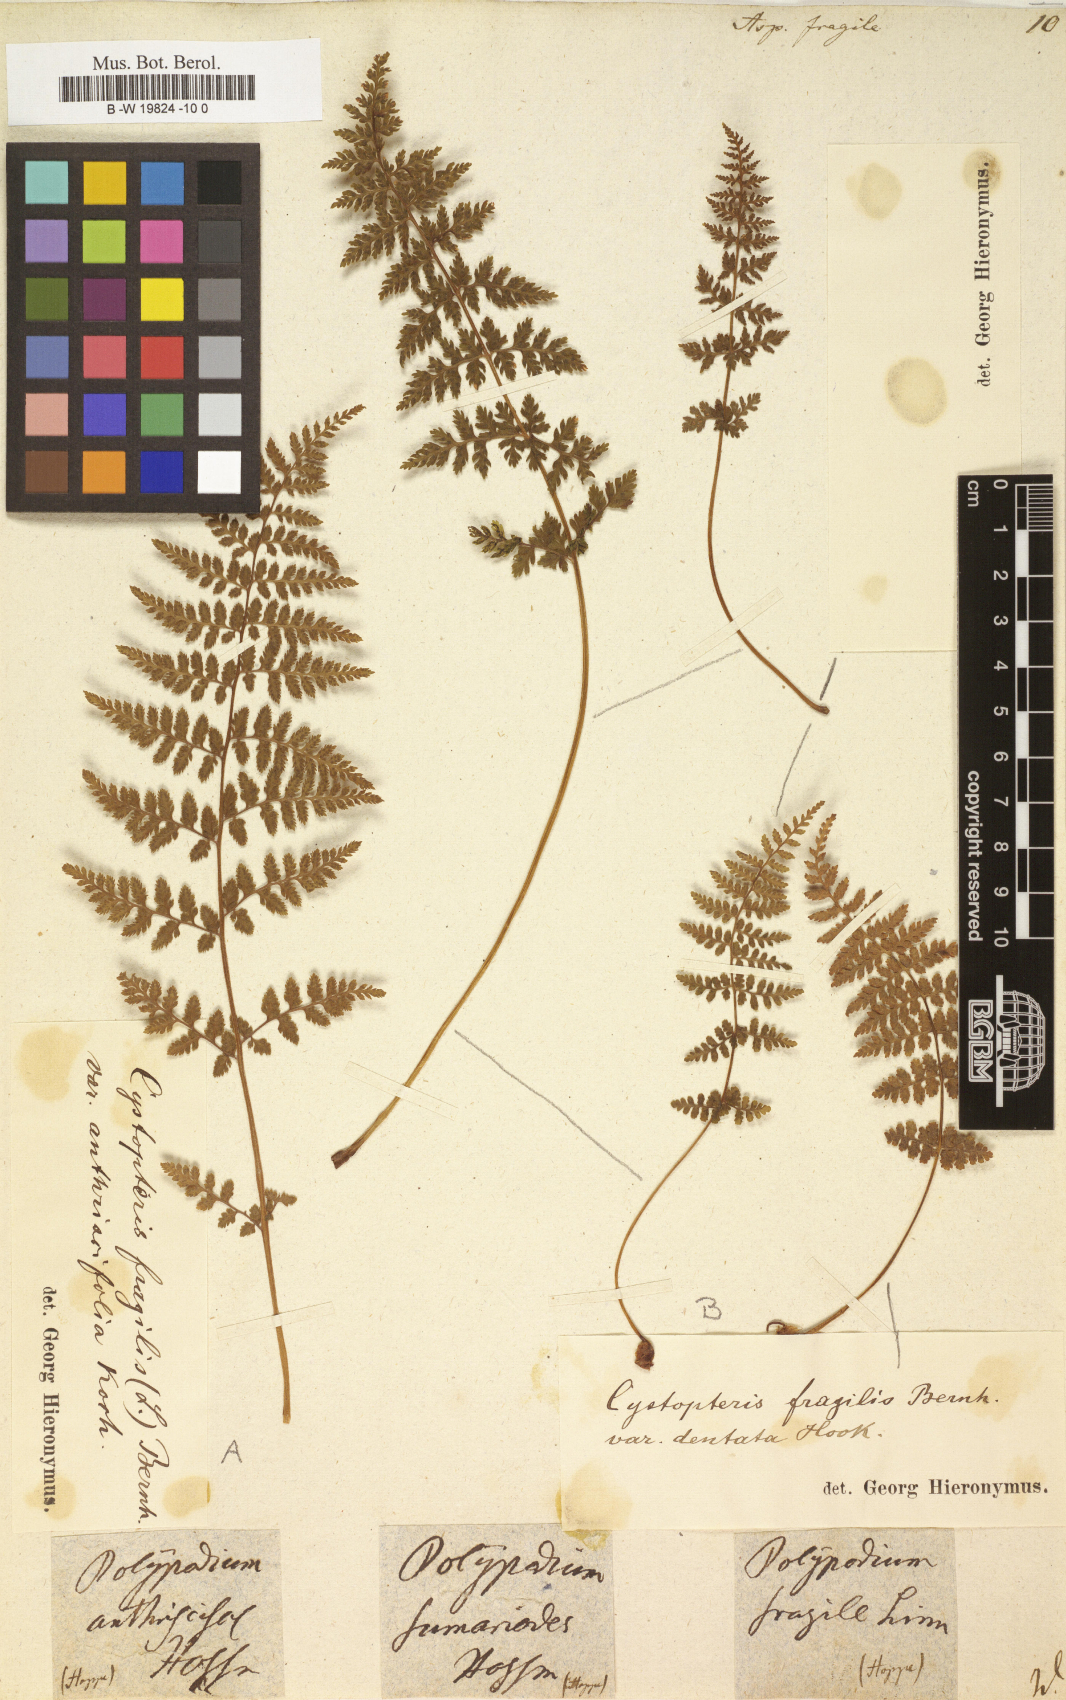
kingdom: Plantae
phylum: Tracheophyta
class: Polypodiopsida
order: Polypodiales
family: Cystopteridaceae
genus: Cystopteris
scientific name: Cystopteris fragilis
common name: Brittle bladder fern
